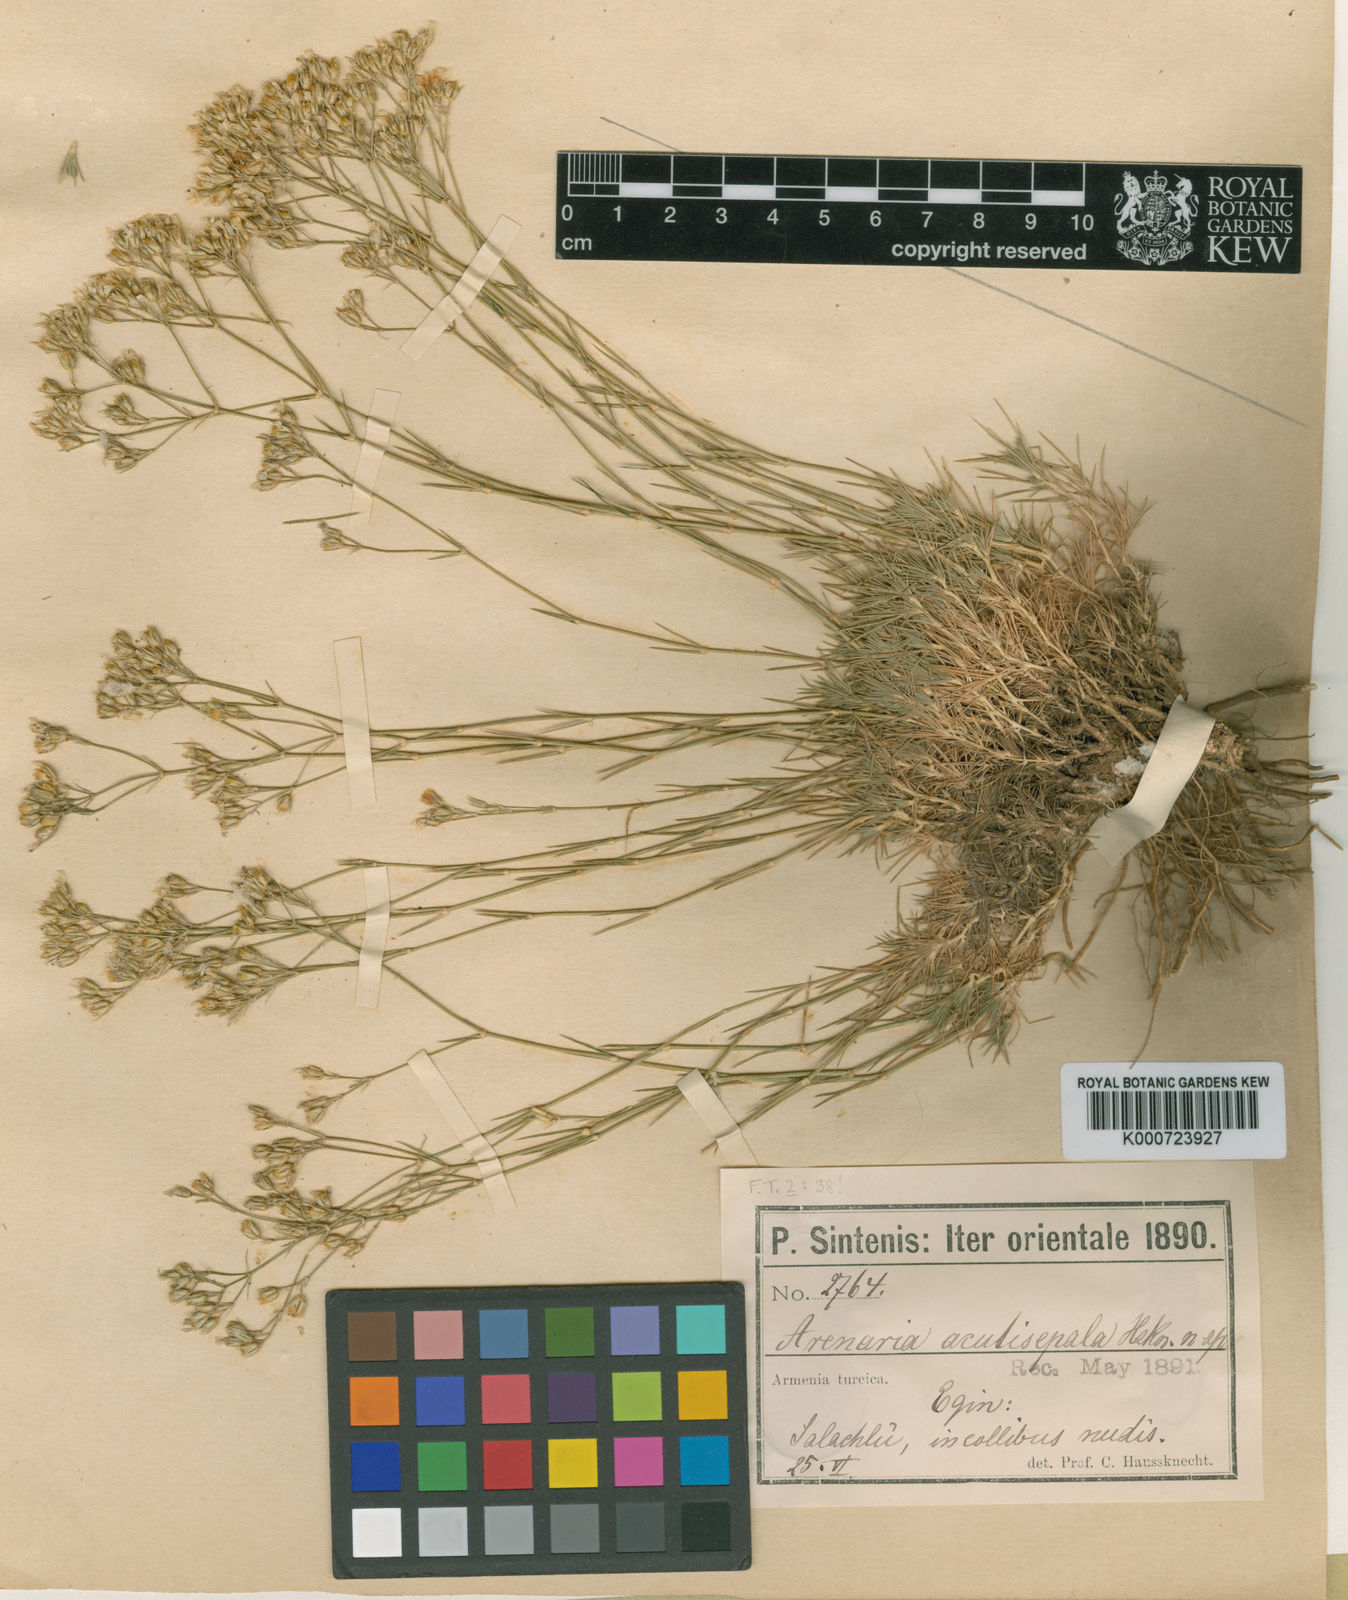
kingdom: Plantae
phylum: Tracheophyta
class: Magnoliopsida
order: Caryophyllales
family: Caryophyllaceae
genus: Eremogone
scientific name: Eremogone acutisepala
